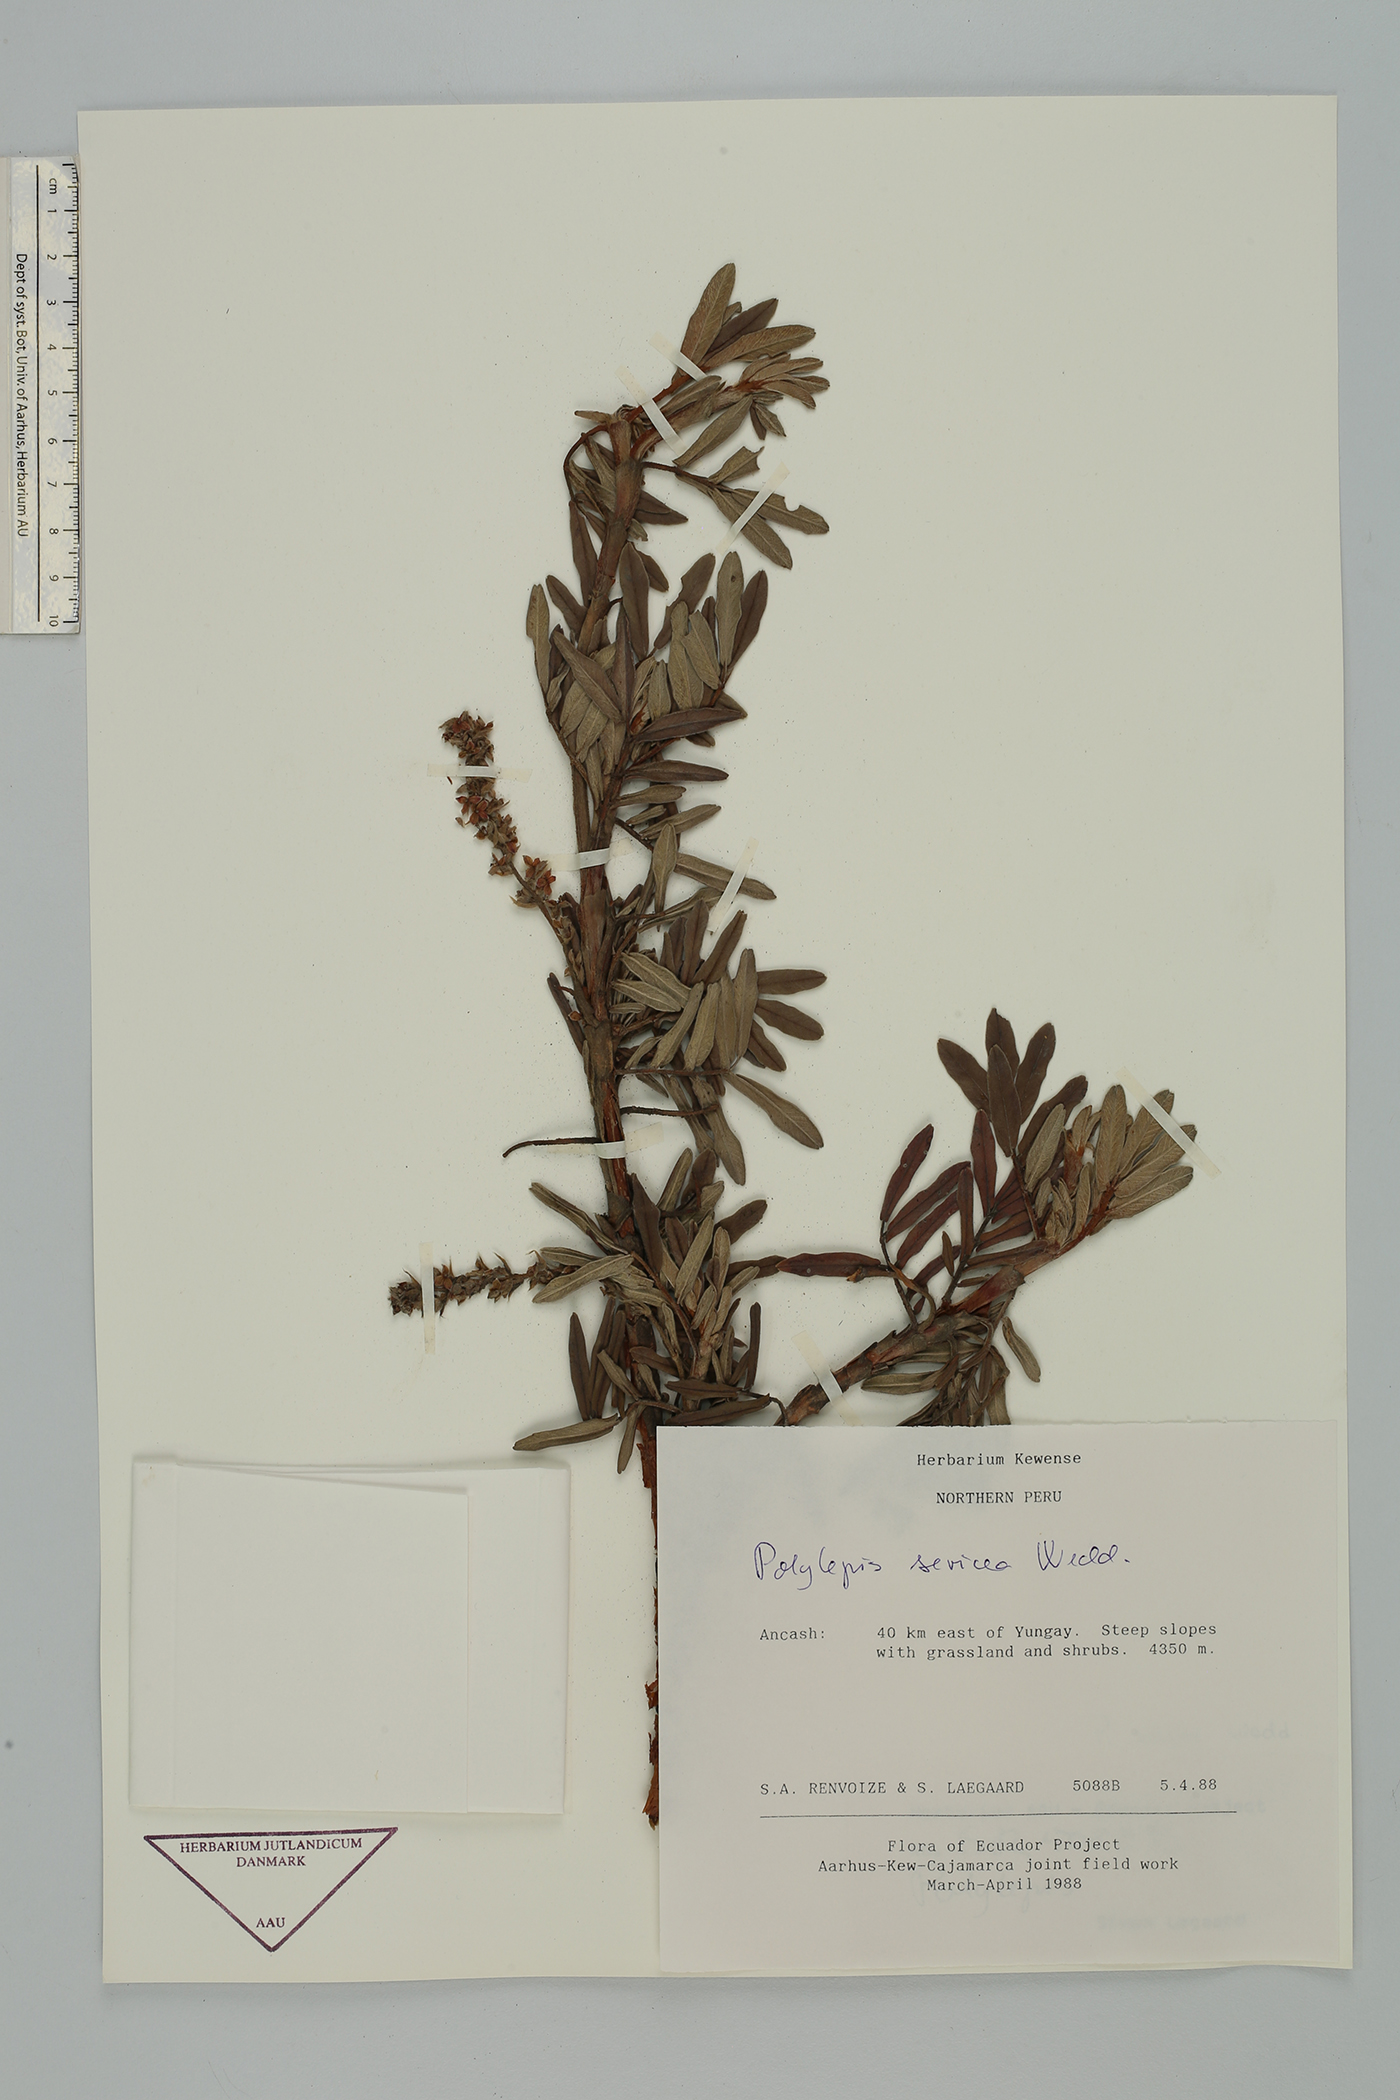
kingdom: Plantae
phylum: Tracheophyta
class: Magnoliopsida
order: Rosales
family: Rosaceae
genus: Polylepis
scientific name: Polylepis sericea
